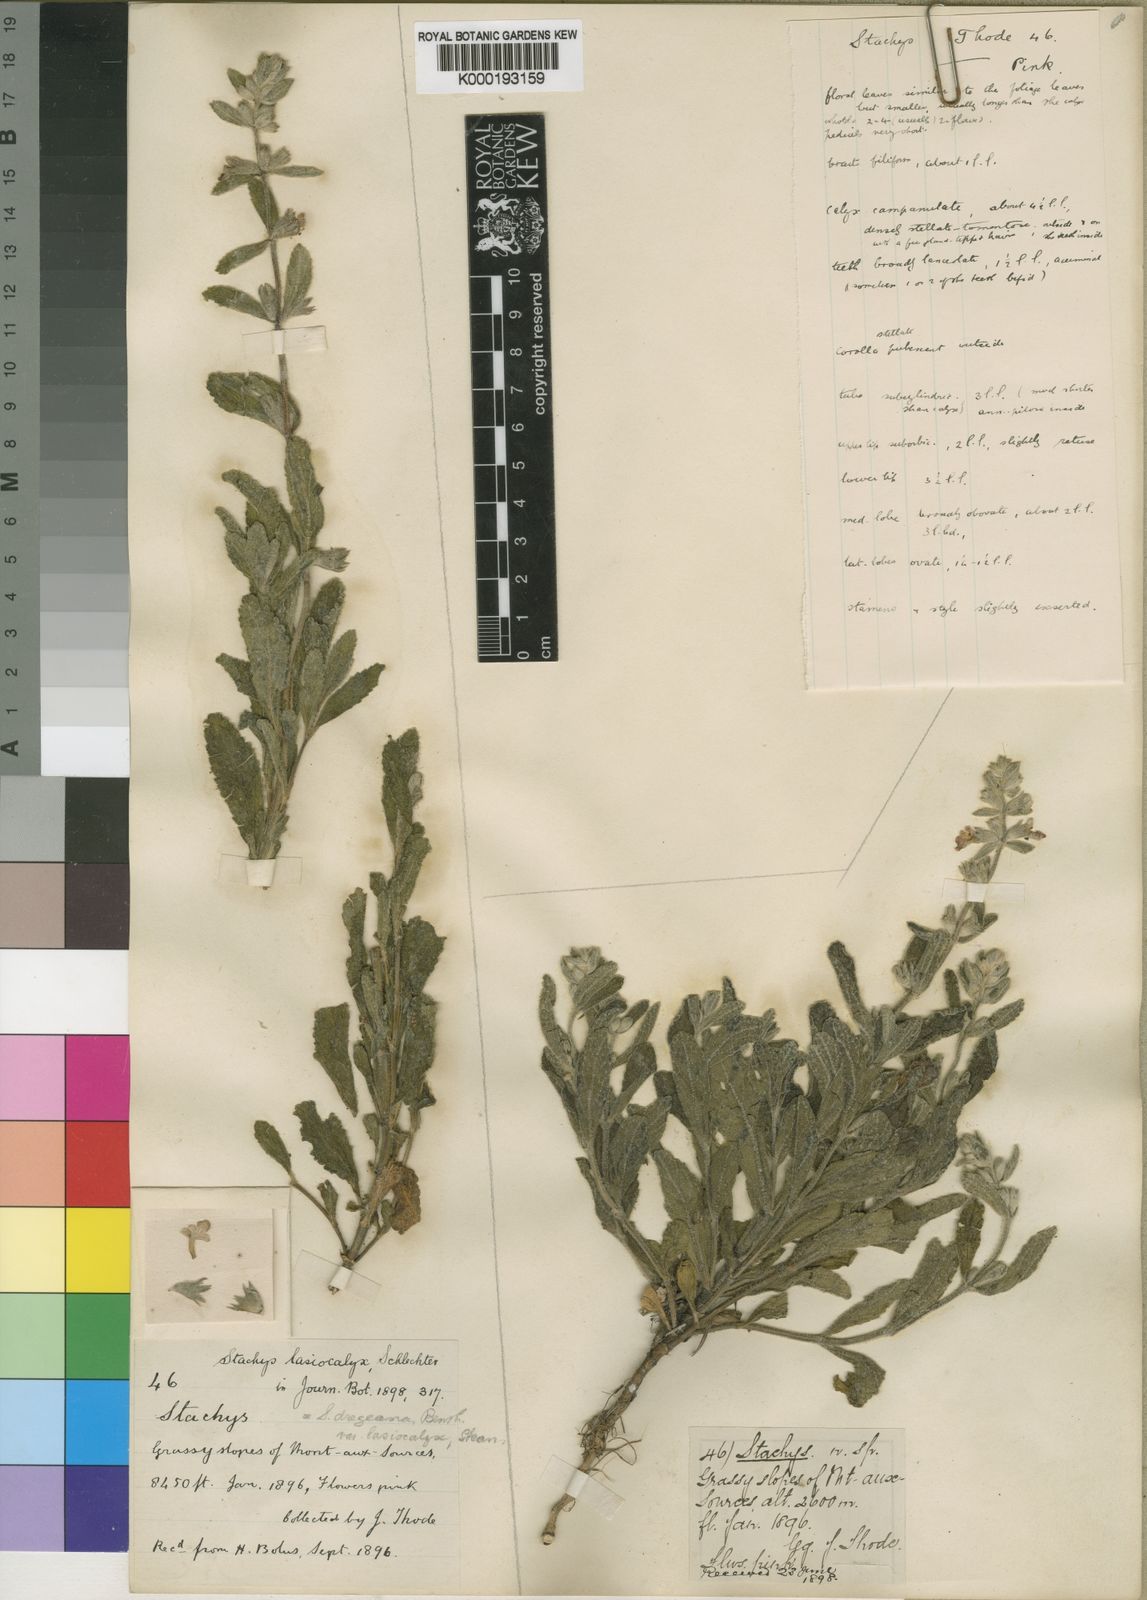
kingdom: Plantae
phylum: Tracheophyta
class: Magnoliopsida
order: Lamiales
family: Lamiaceae
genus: Stachys
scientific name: Stachys dregeana
